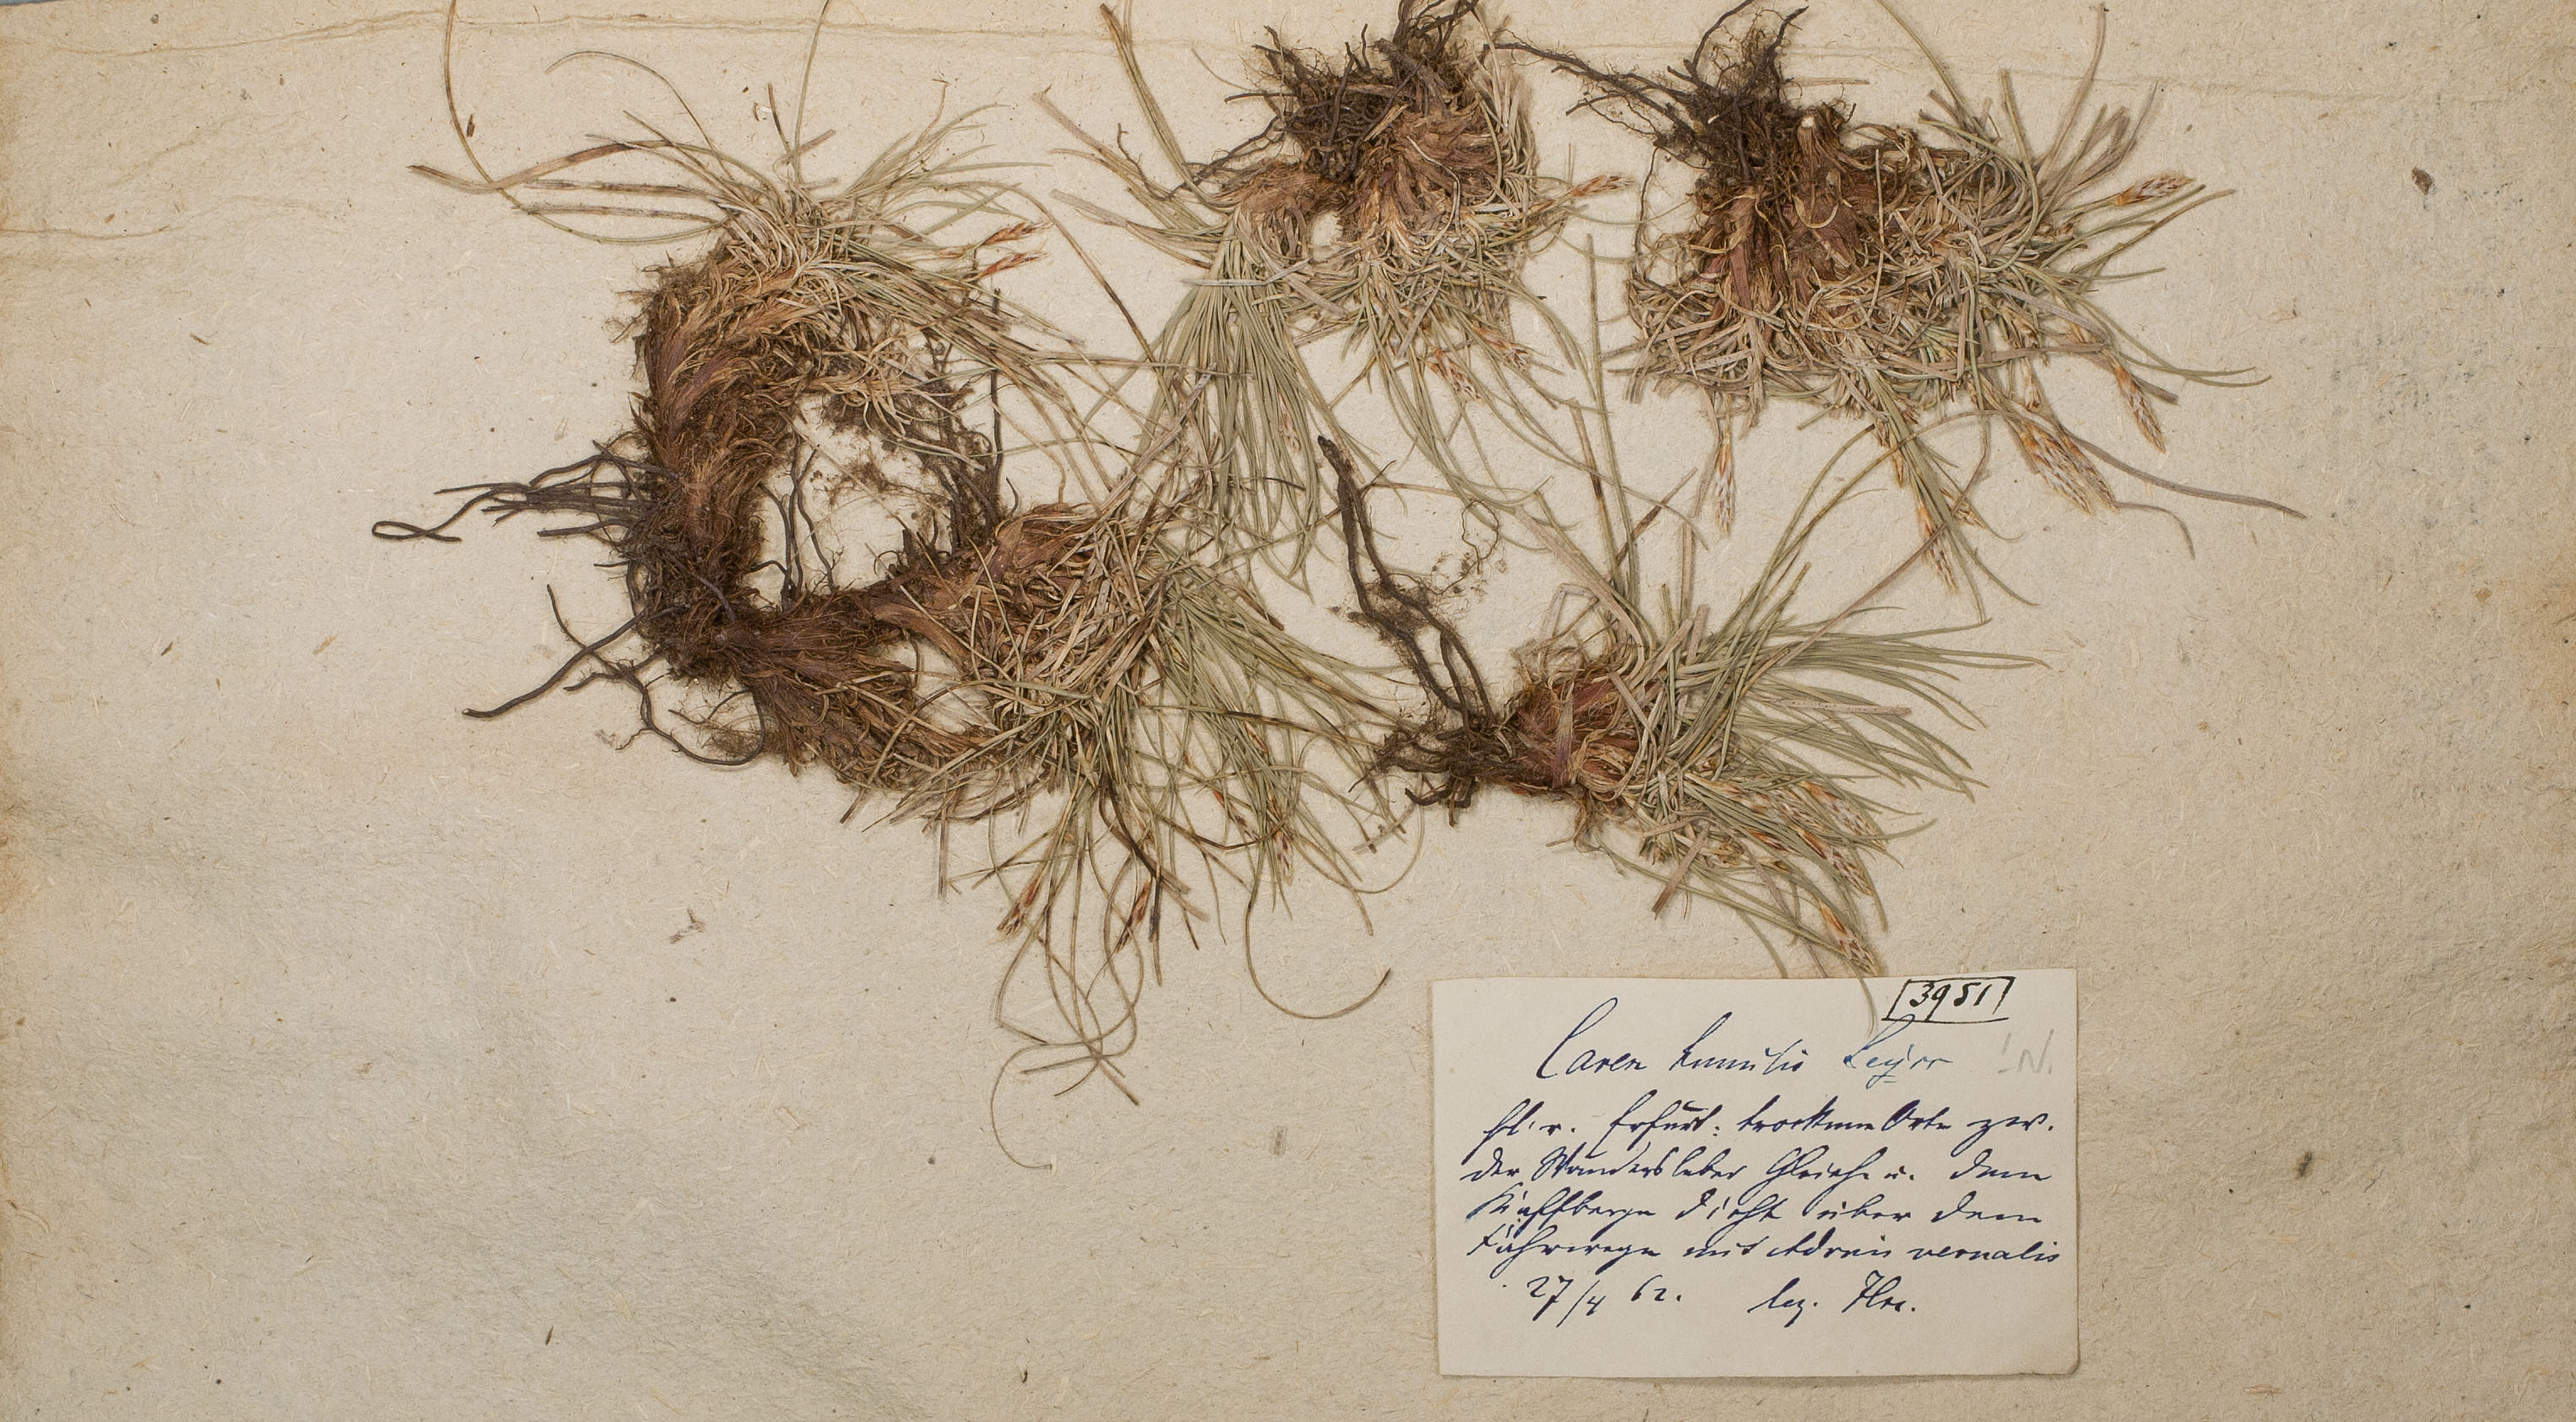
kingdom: Plantae
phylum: Tracheophyta
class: Liliopsida
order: Poales
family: Cyperaceae
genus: Carex
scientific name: Carex humilis
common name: Dwarf sedge
